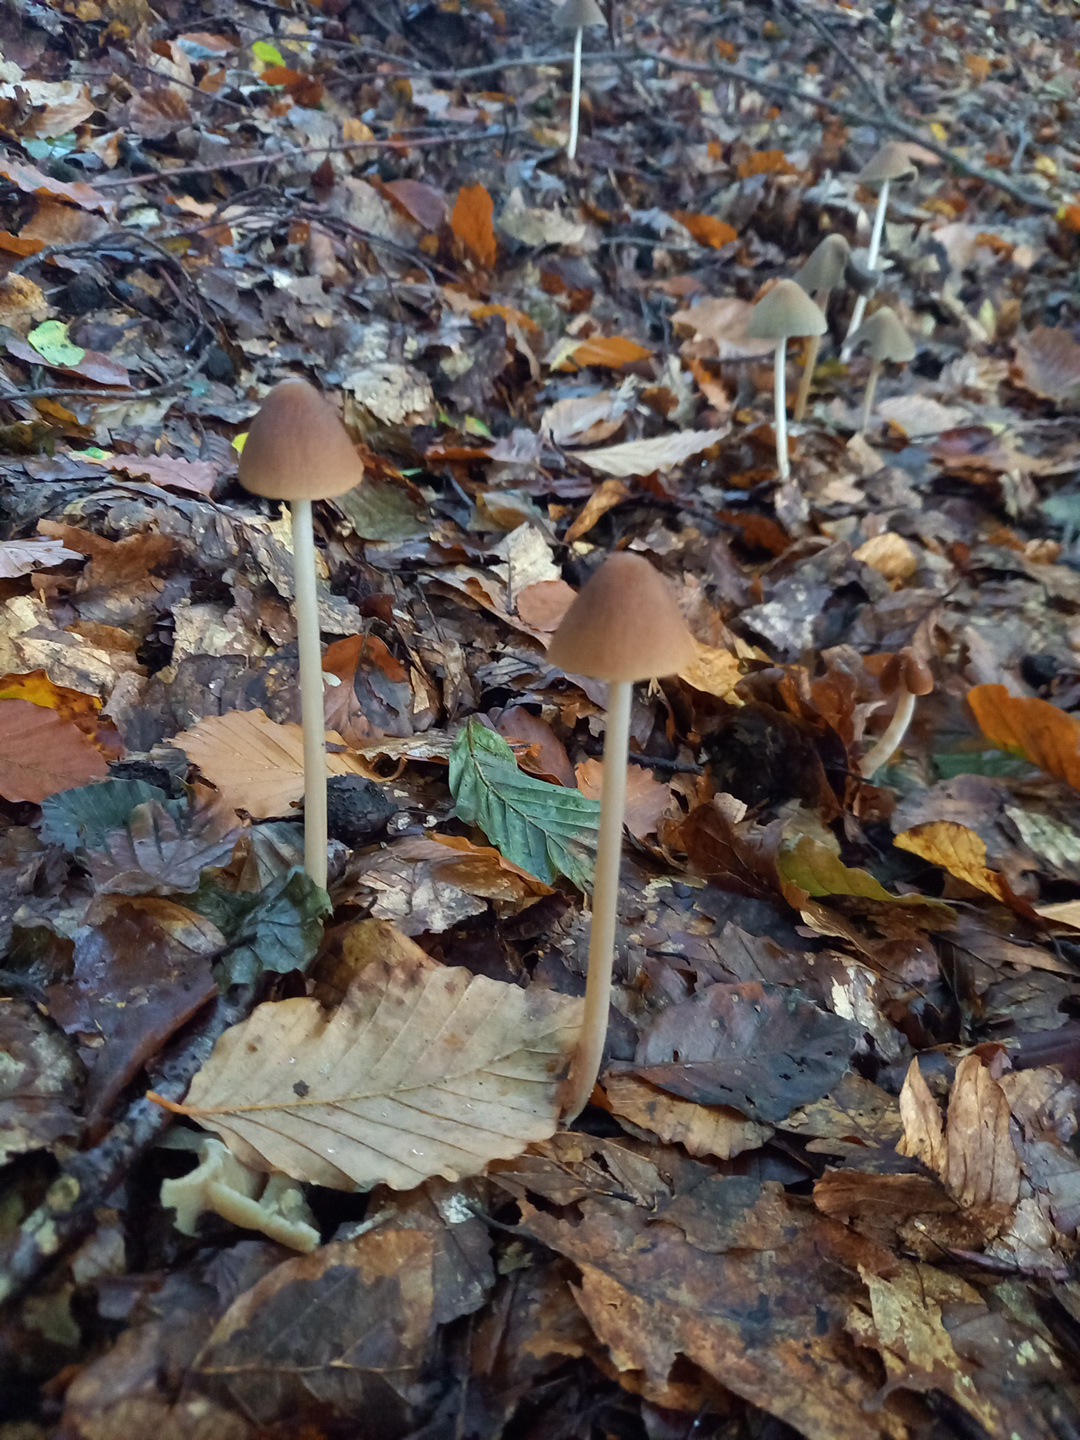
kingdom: Fungi
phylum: Basidiomycota
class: Agaricomycetes
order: Agaricales
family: Psathyrellaceae
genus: Parasola
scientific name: Parasola conopilea
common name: kegle-hjulhat
